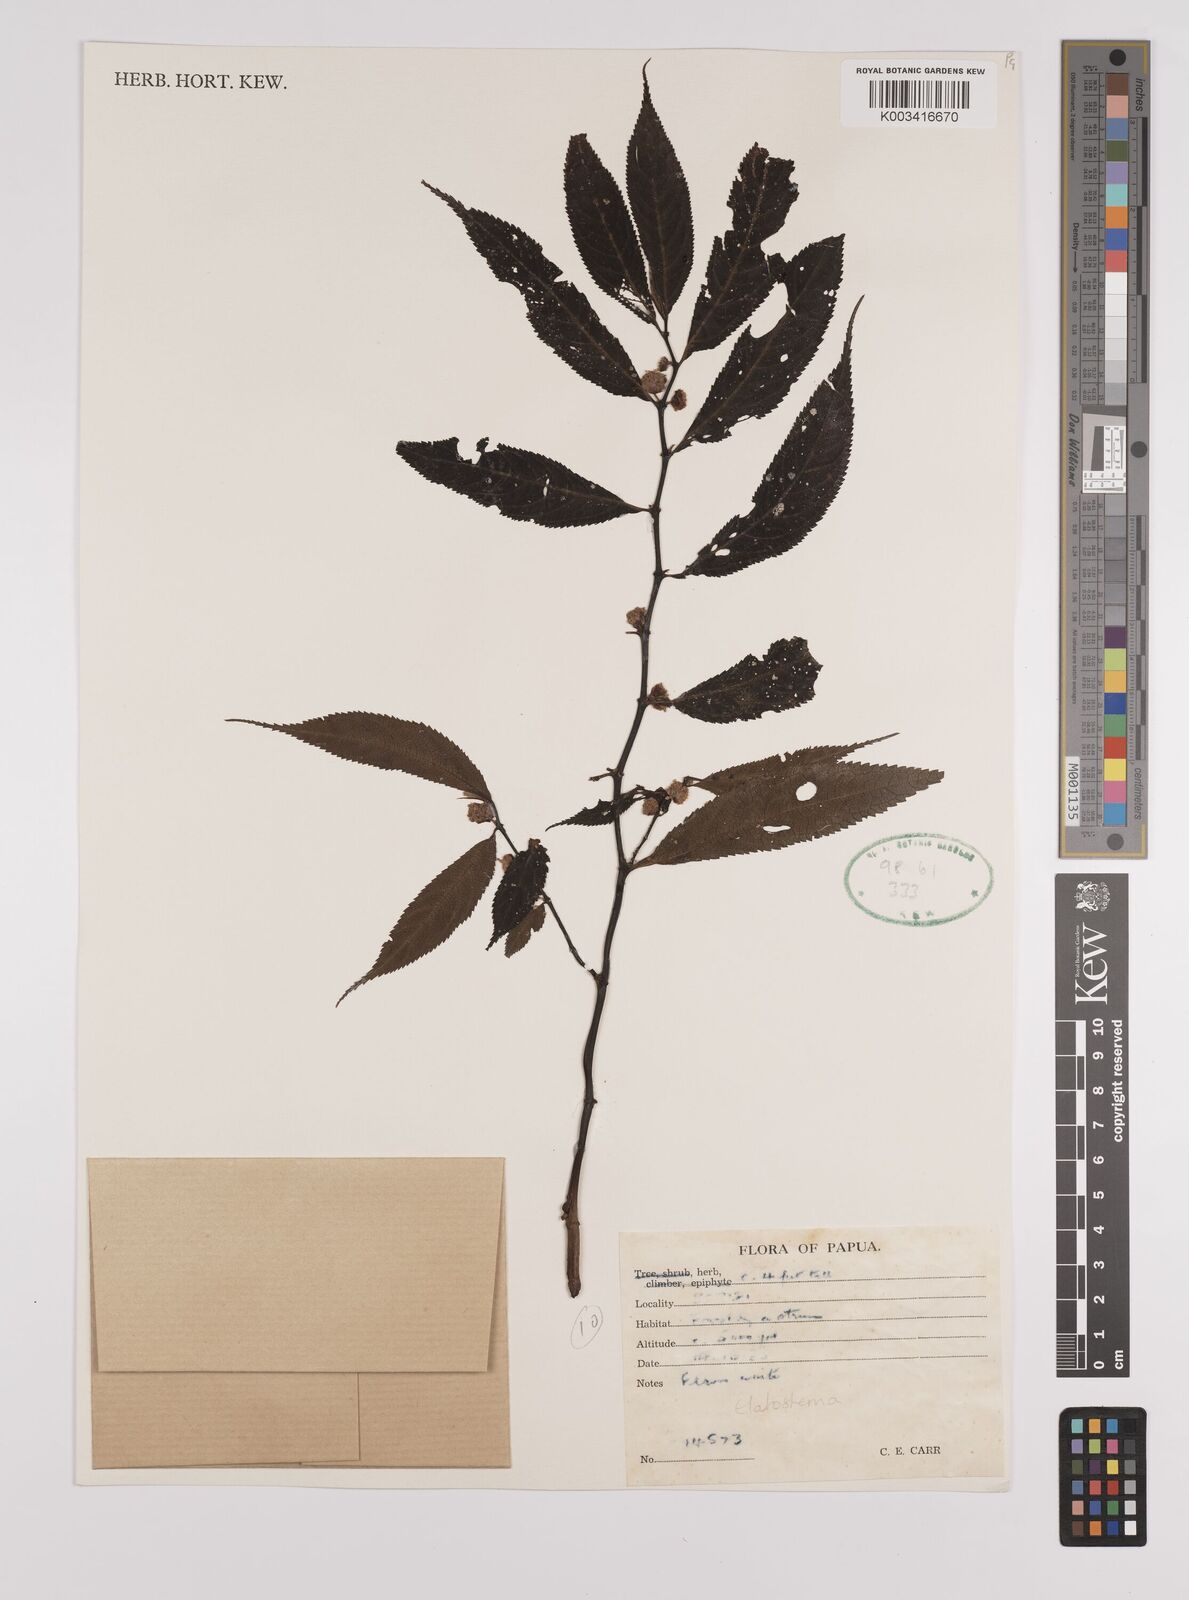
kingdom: Plantae
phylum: Tracheophyta
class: Magnoliopsida
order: Rosales
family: Urticaceae
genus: Elatostema
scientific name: Elatostema
